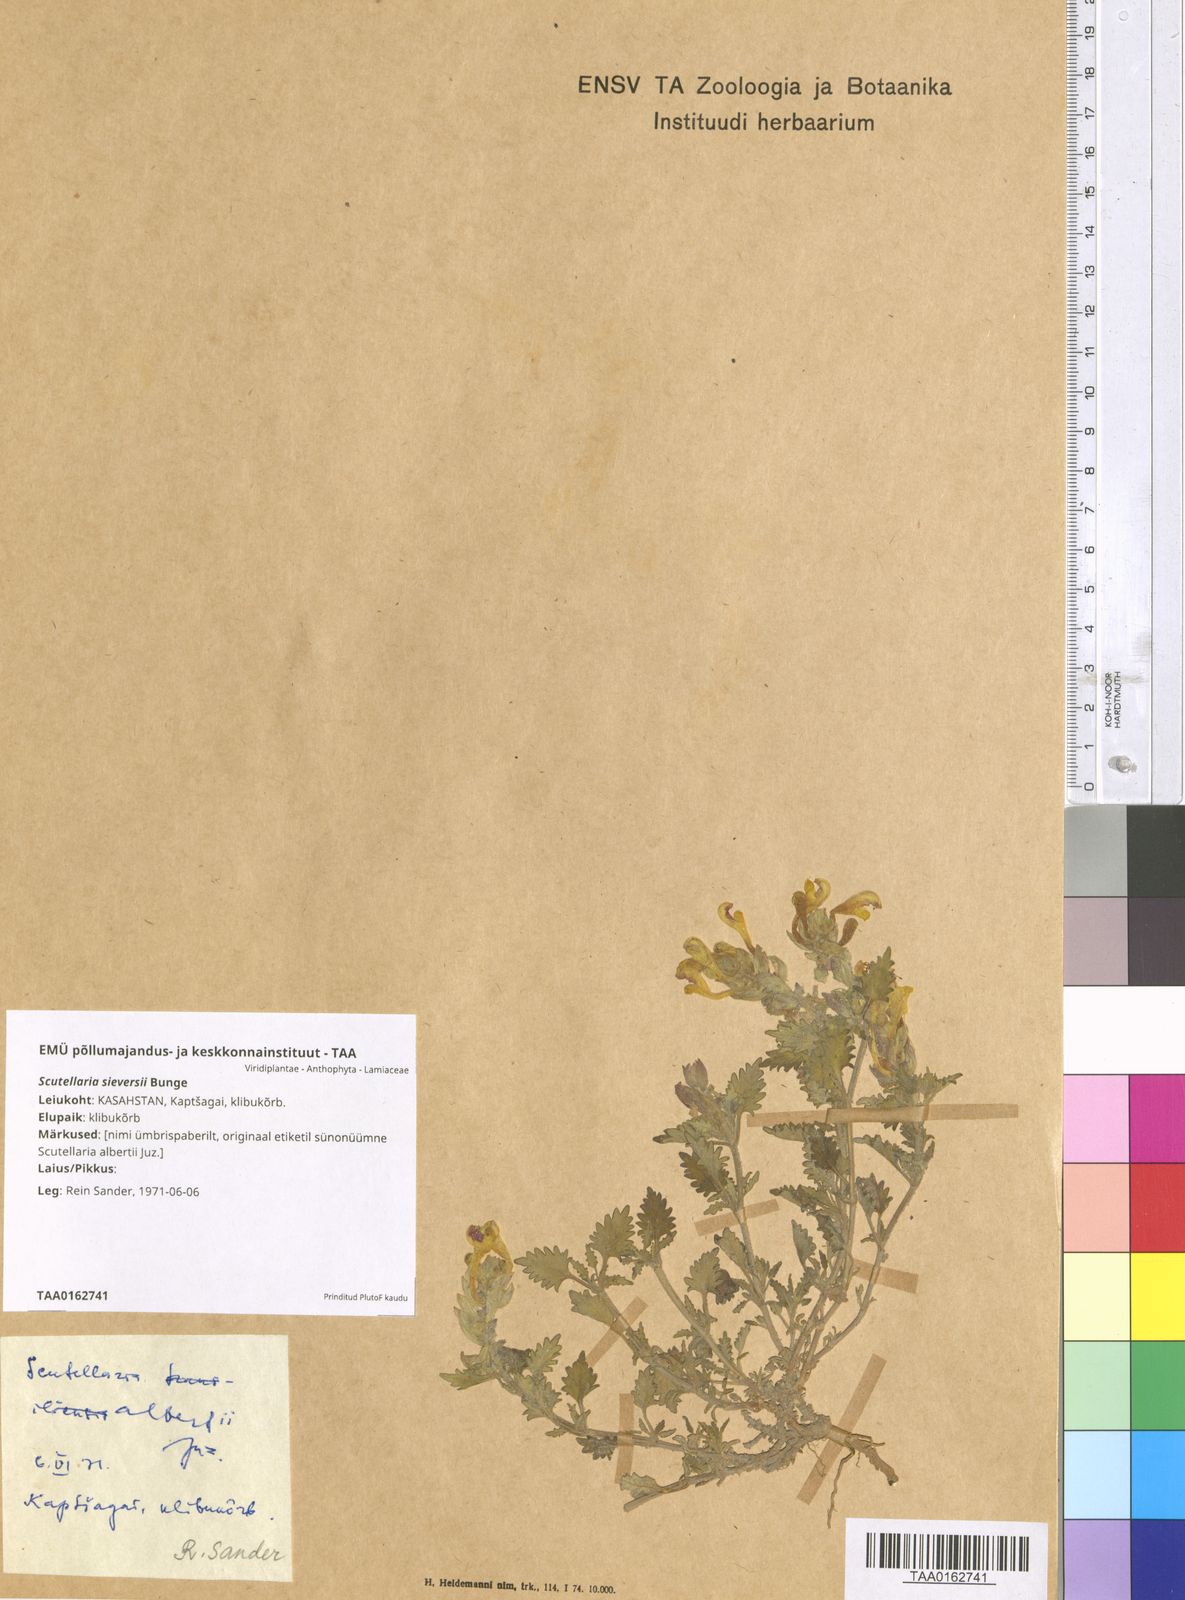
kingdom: Plantae
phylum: Tracheophyta
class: Magnoliopsida
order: Lamiales
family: Lamiaceae
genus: Scutellaria
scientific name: Scutellaria sieversii
